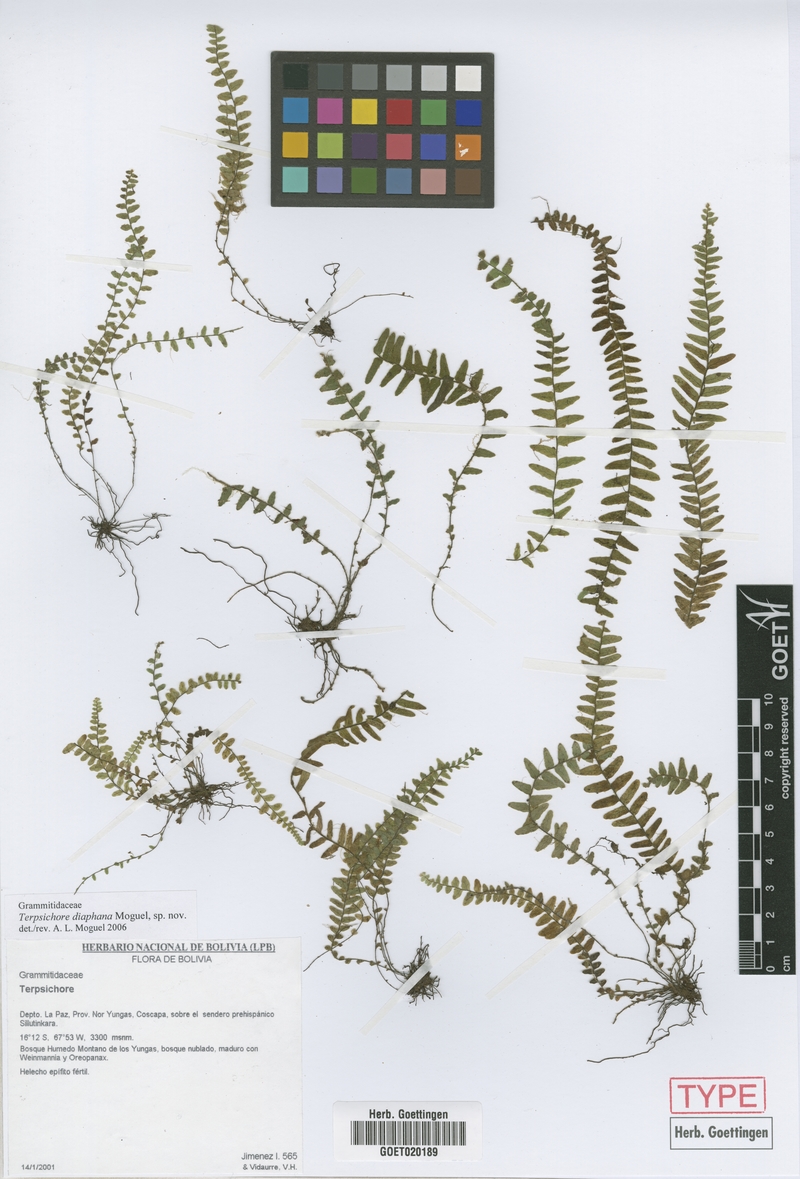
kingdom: Plantae
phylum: Tracheophyta
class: Polypodiopsida
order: Polypodiales
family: Polypodiaceae
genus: Alansmia
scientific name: Alansmia diaphana
